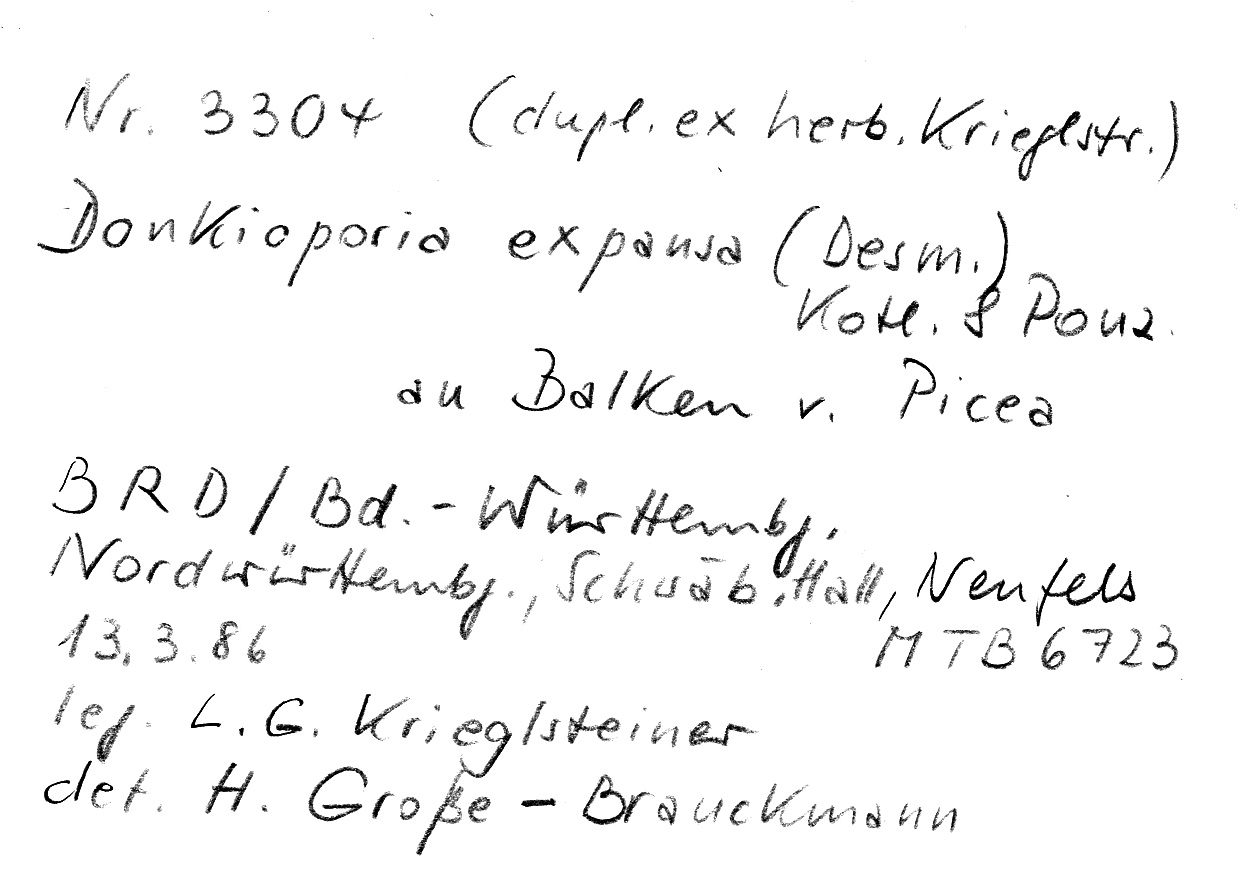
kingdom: Plantae
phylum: Tracheophyta
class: Pinopsida
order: Pinales
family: Pinaceae
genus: Picea
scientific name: Picea
